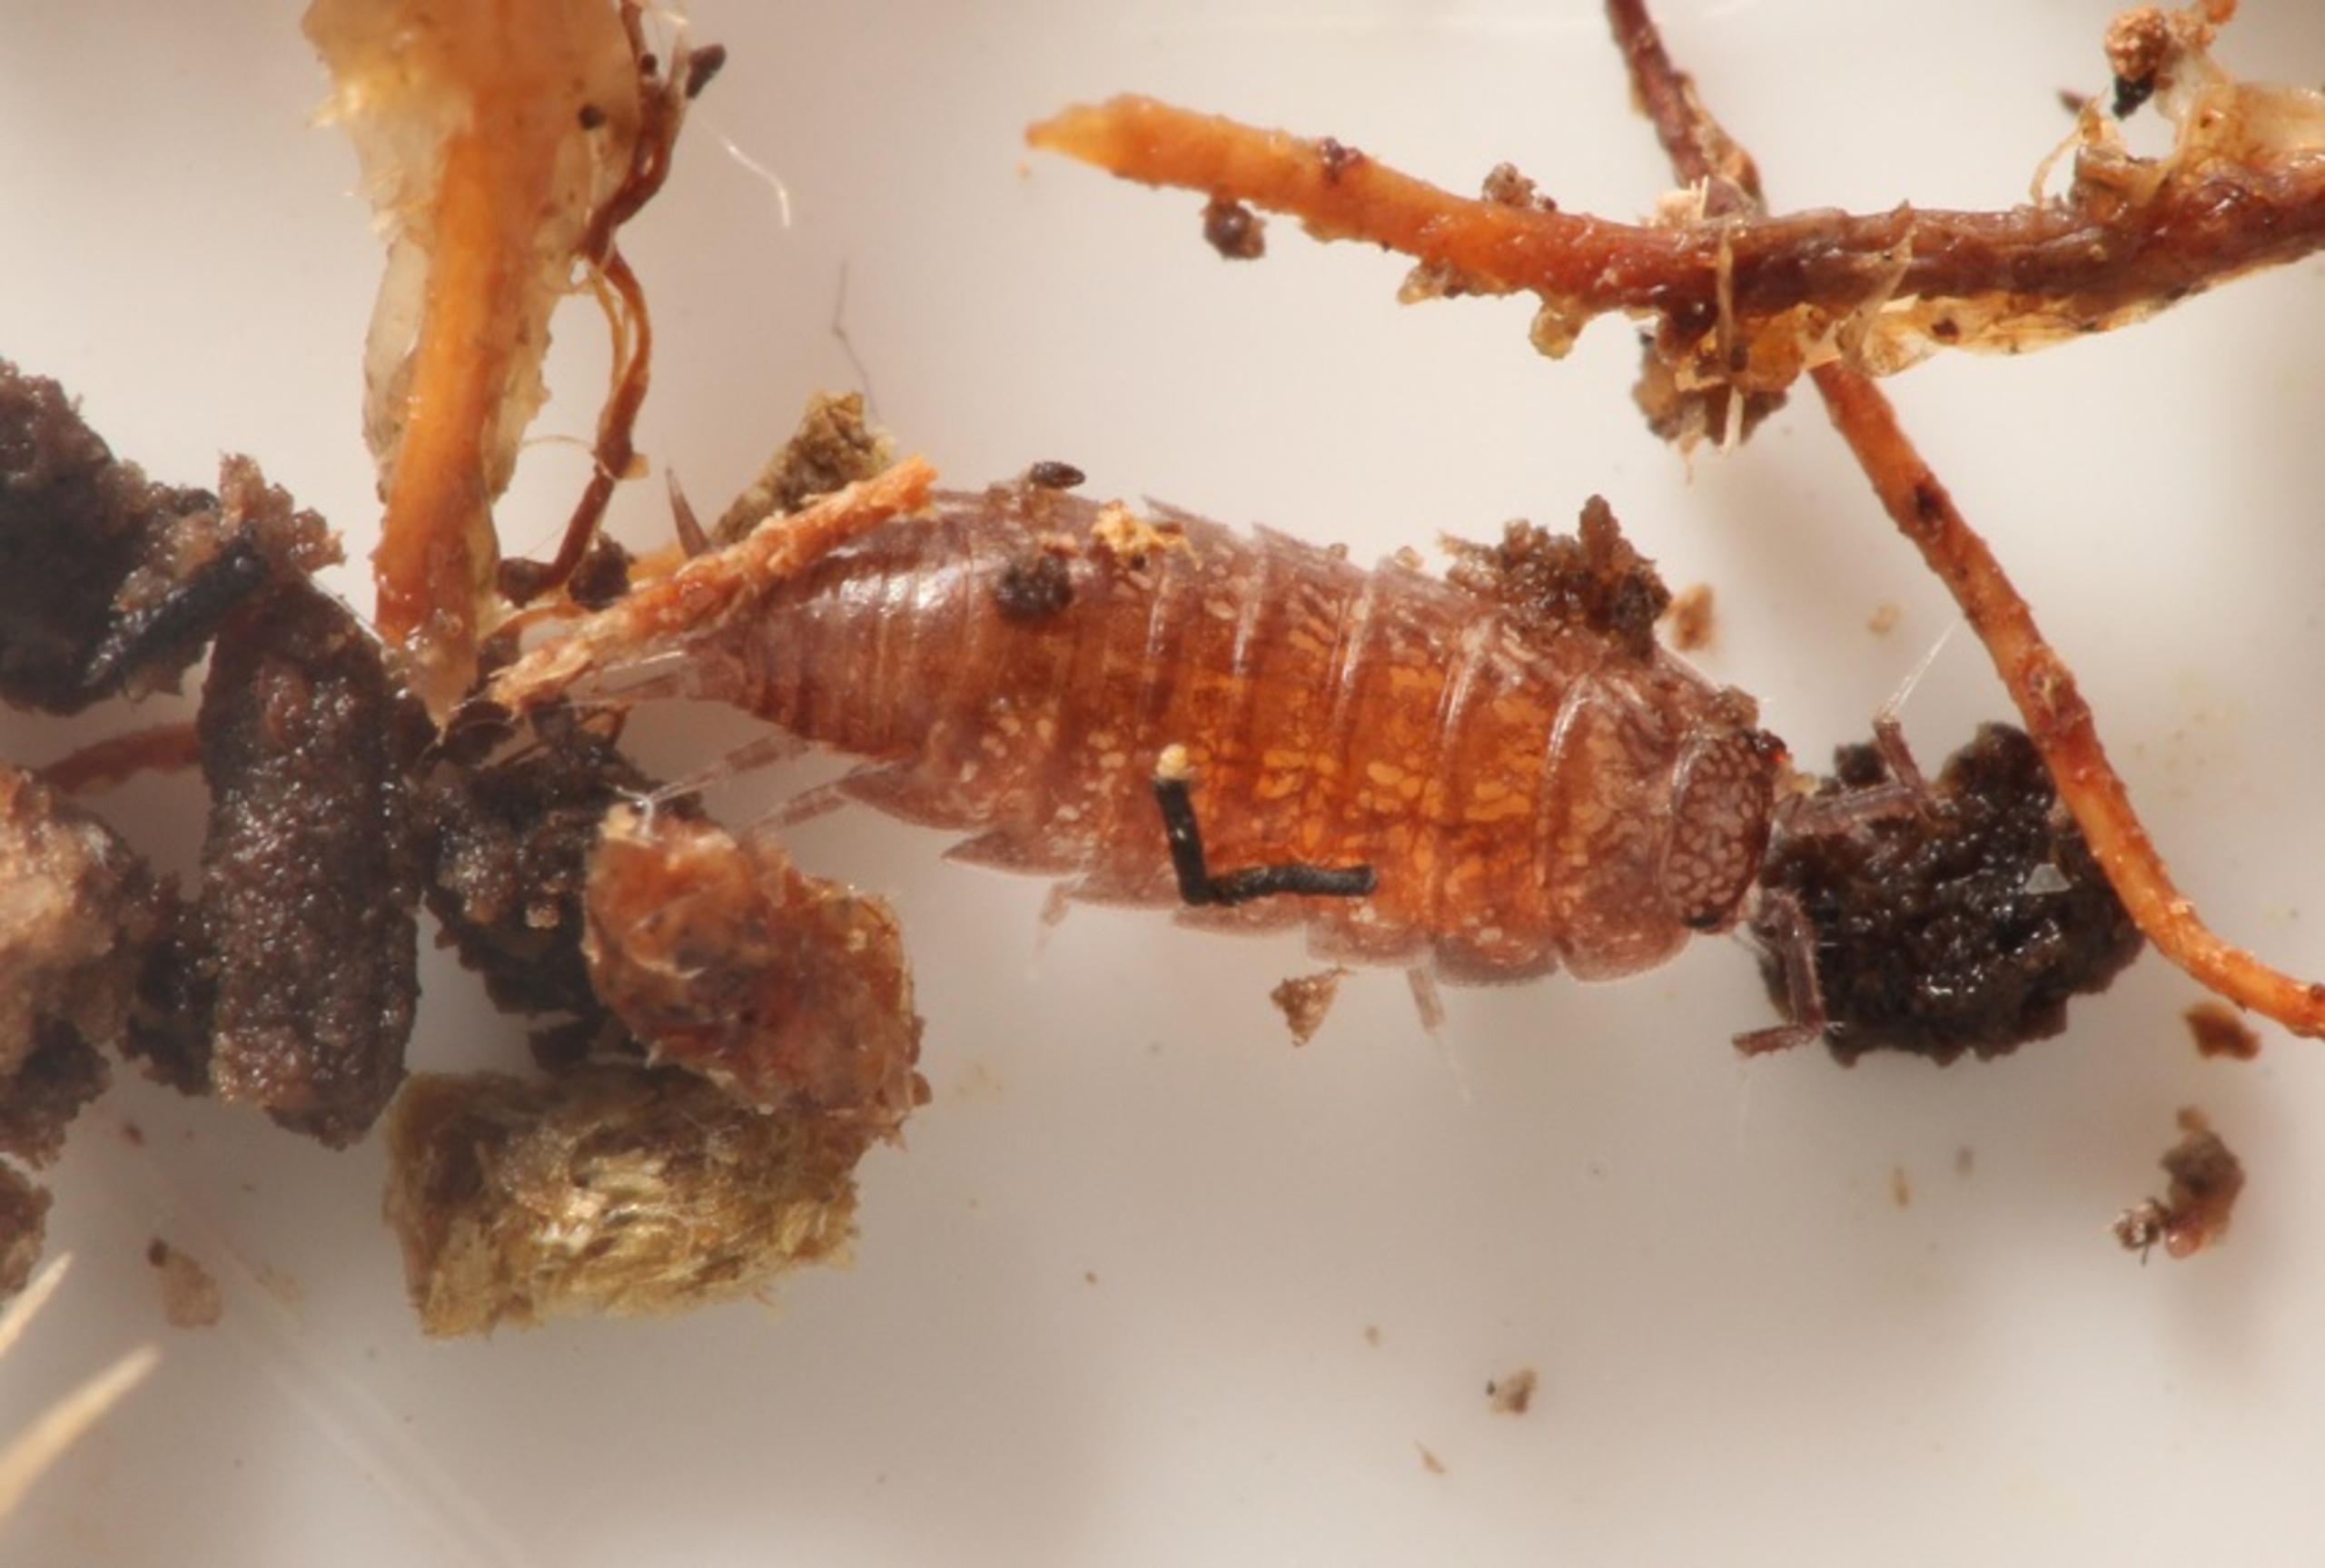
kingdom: Animalia
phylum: Arthropoda
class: Malacostraca
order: Isopoda
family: Trichoniscidae
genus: Trichoniscus
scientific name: Trichoniscus pusillus
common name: Rød dværgbænkebider
